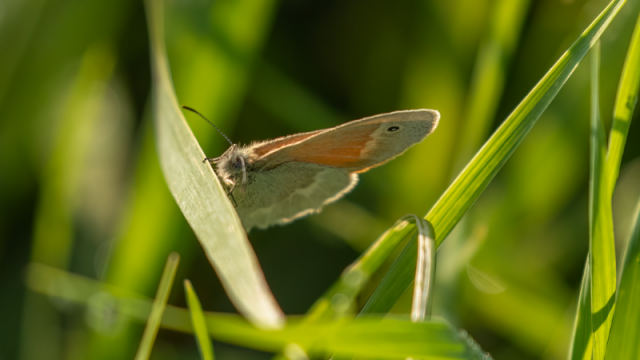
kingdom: Animalia
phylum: Arthropoda
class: Insecta
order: Lepidoptera
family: Nymphalidae
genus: Coenonympha
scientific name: Coenonympha tullia
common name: Large Heath
